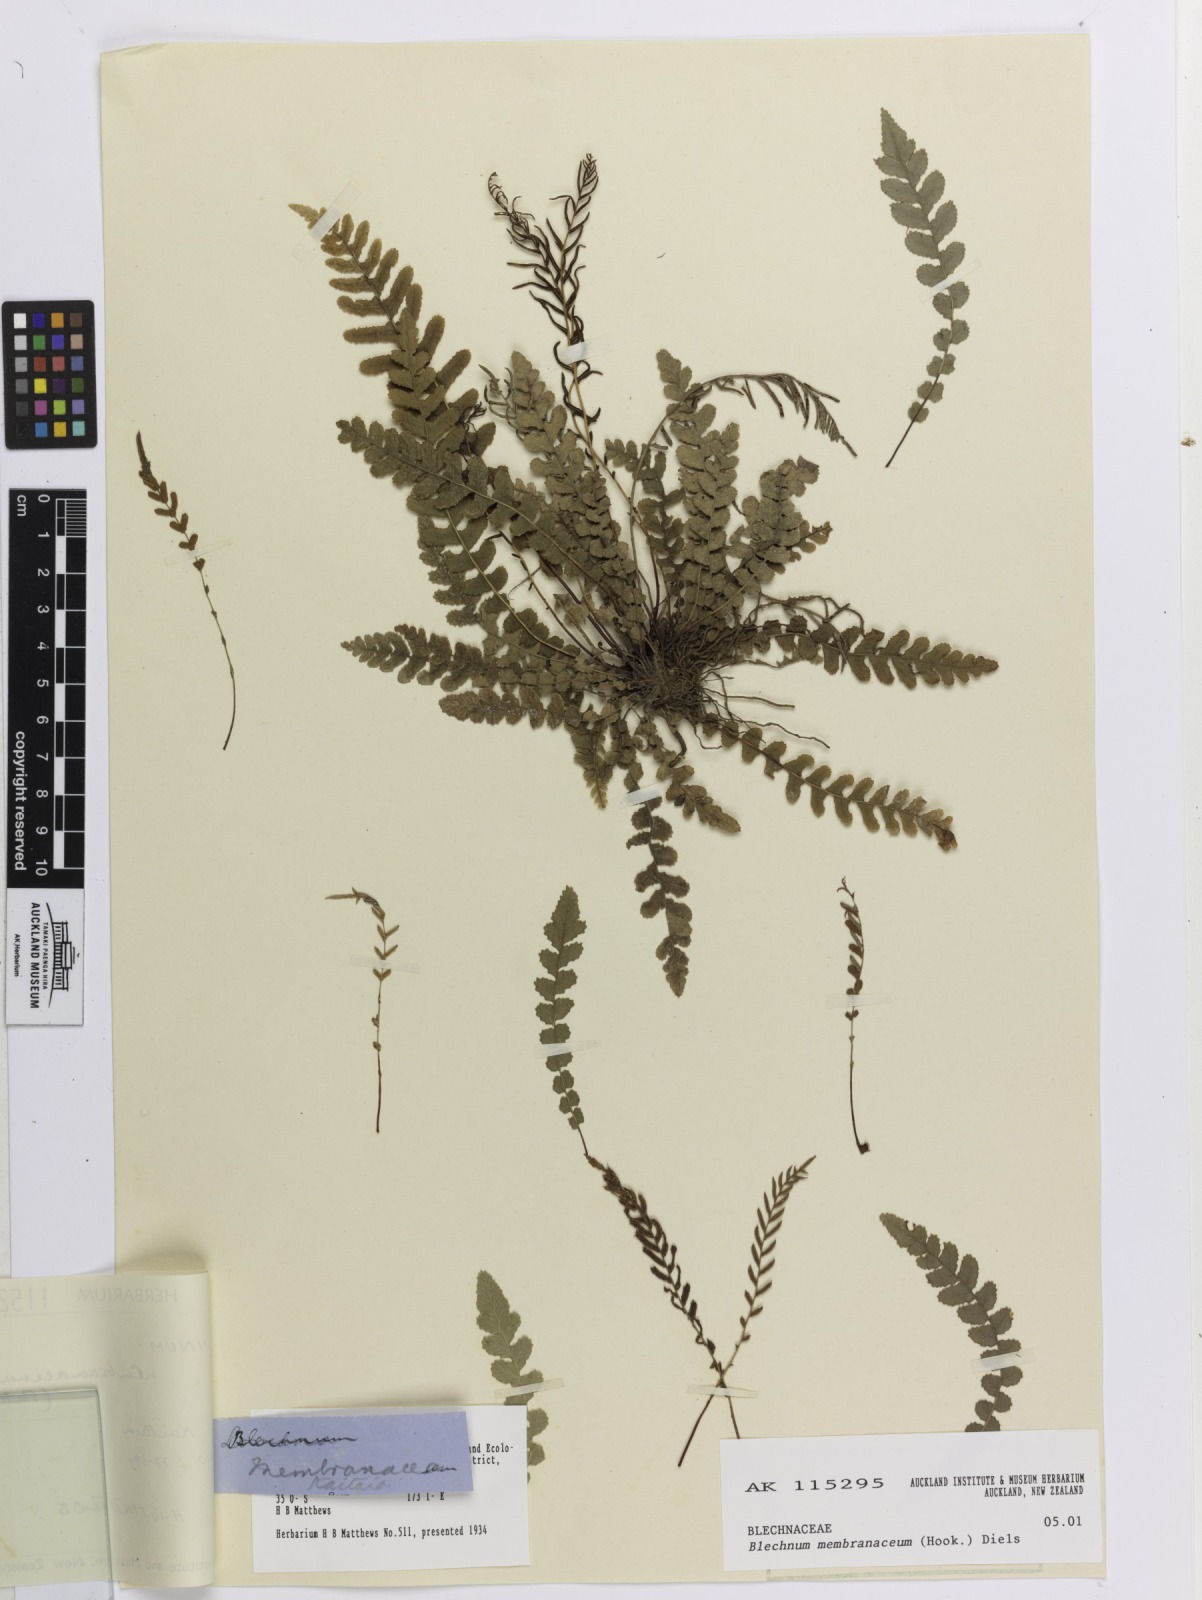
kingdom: Plantae
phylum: Tracheophyta
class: Polypodiopsida
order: Polypodiales
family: Blechnaceae
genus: Austroblechnum
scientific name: Austroblechnum membranaceum
